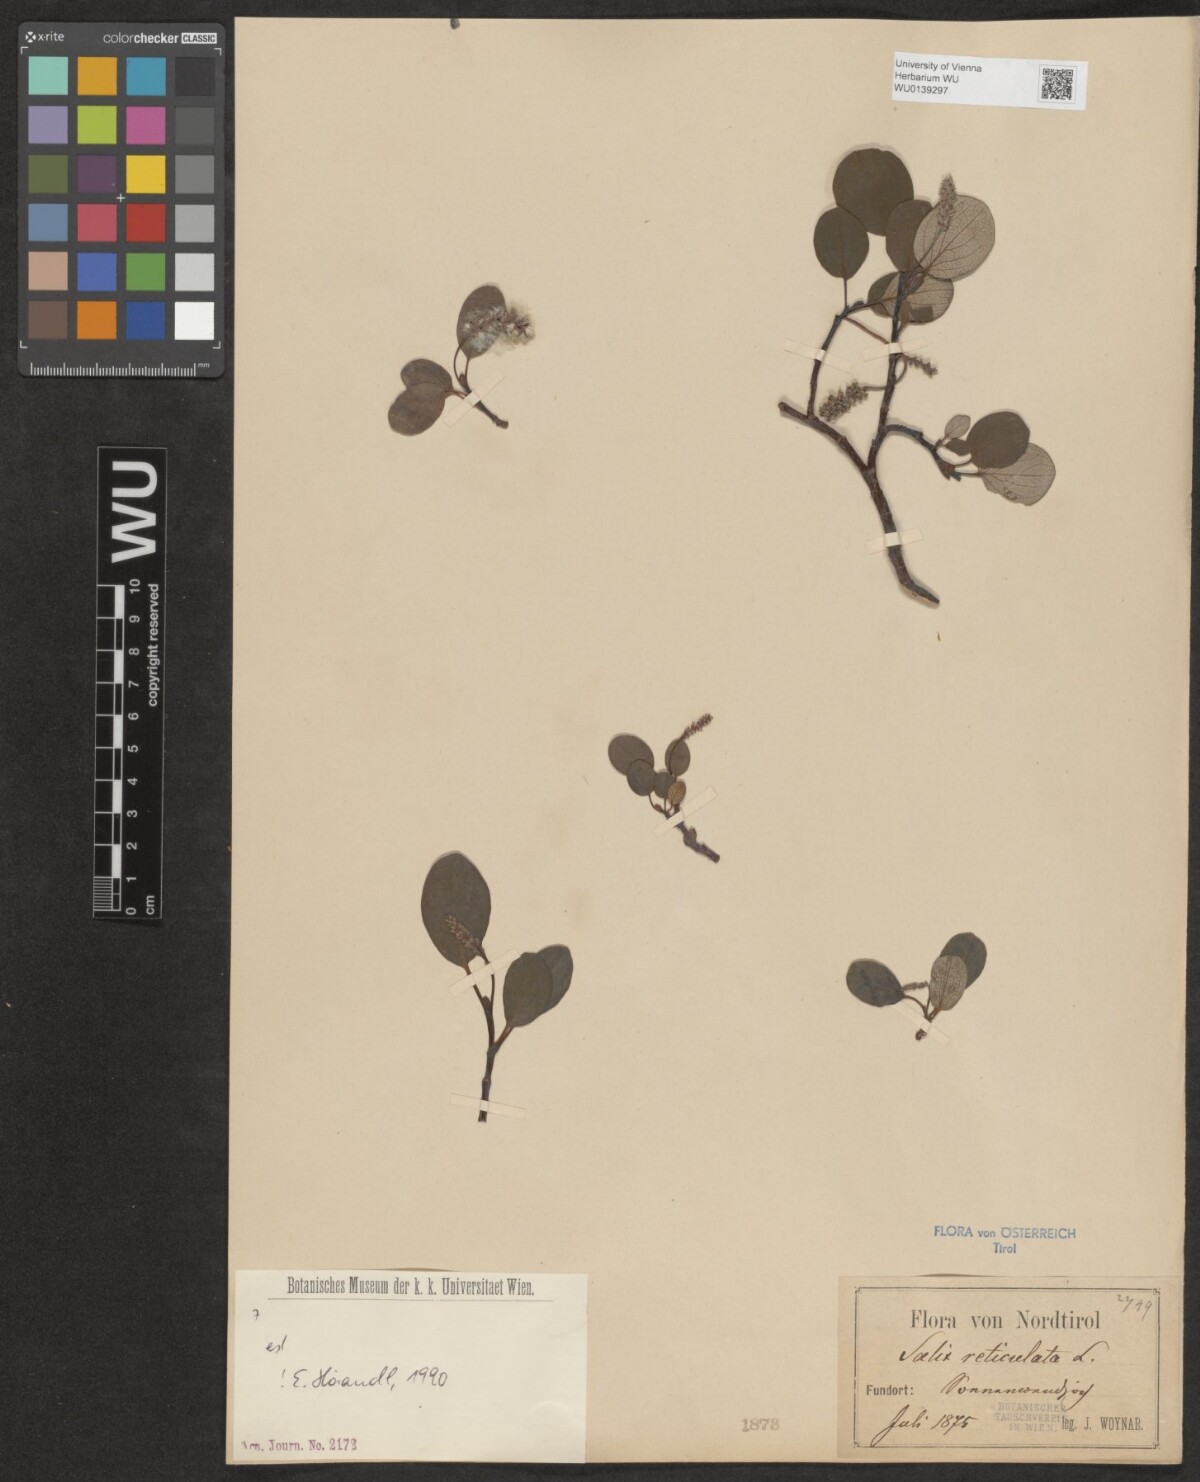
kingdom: Plantae
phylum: Tracheophyta
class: Magnoliopsida
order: Malpighiales
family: Salicaceae
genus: Salix
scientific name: Salix reticulata
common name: Net-leaved willow
